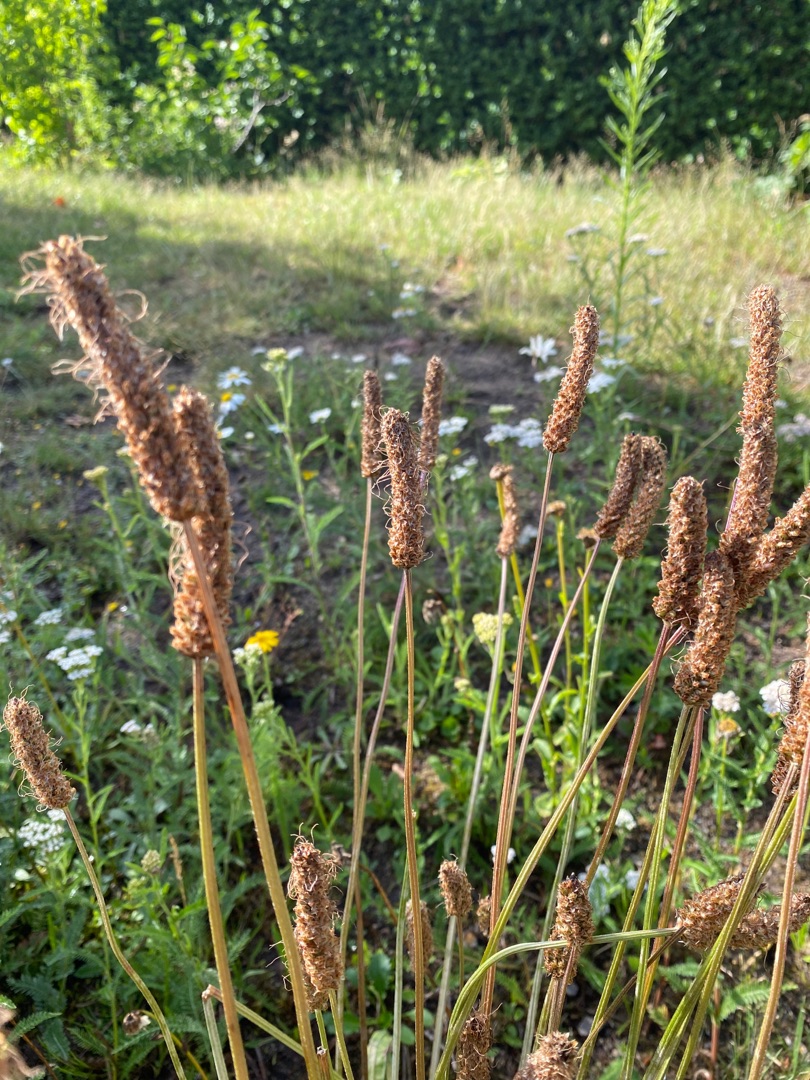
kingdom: Plantae
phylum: Tracheophyta
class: Magnoliopsida
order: Lamiales
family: Plantaginaceae
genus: Plantago
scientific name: Plantago lanceolata
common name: Lancet-vejbred
